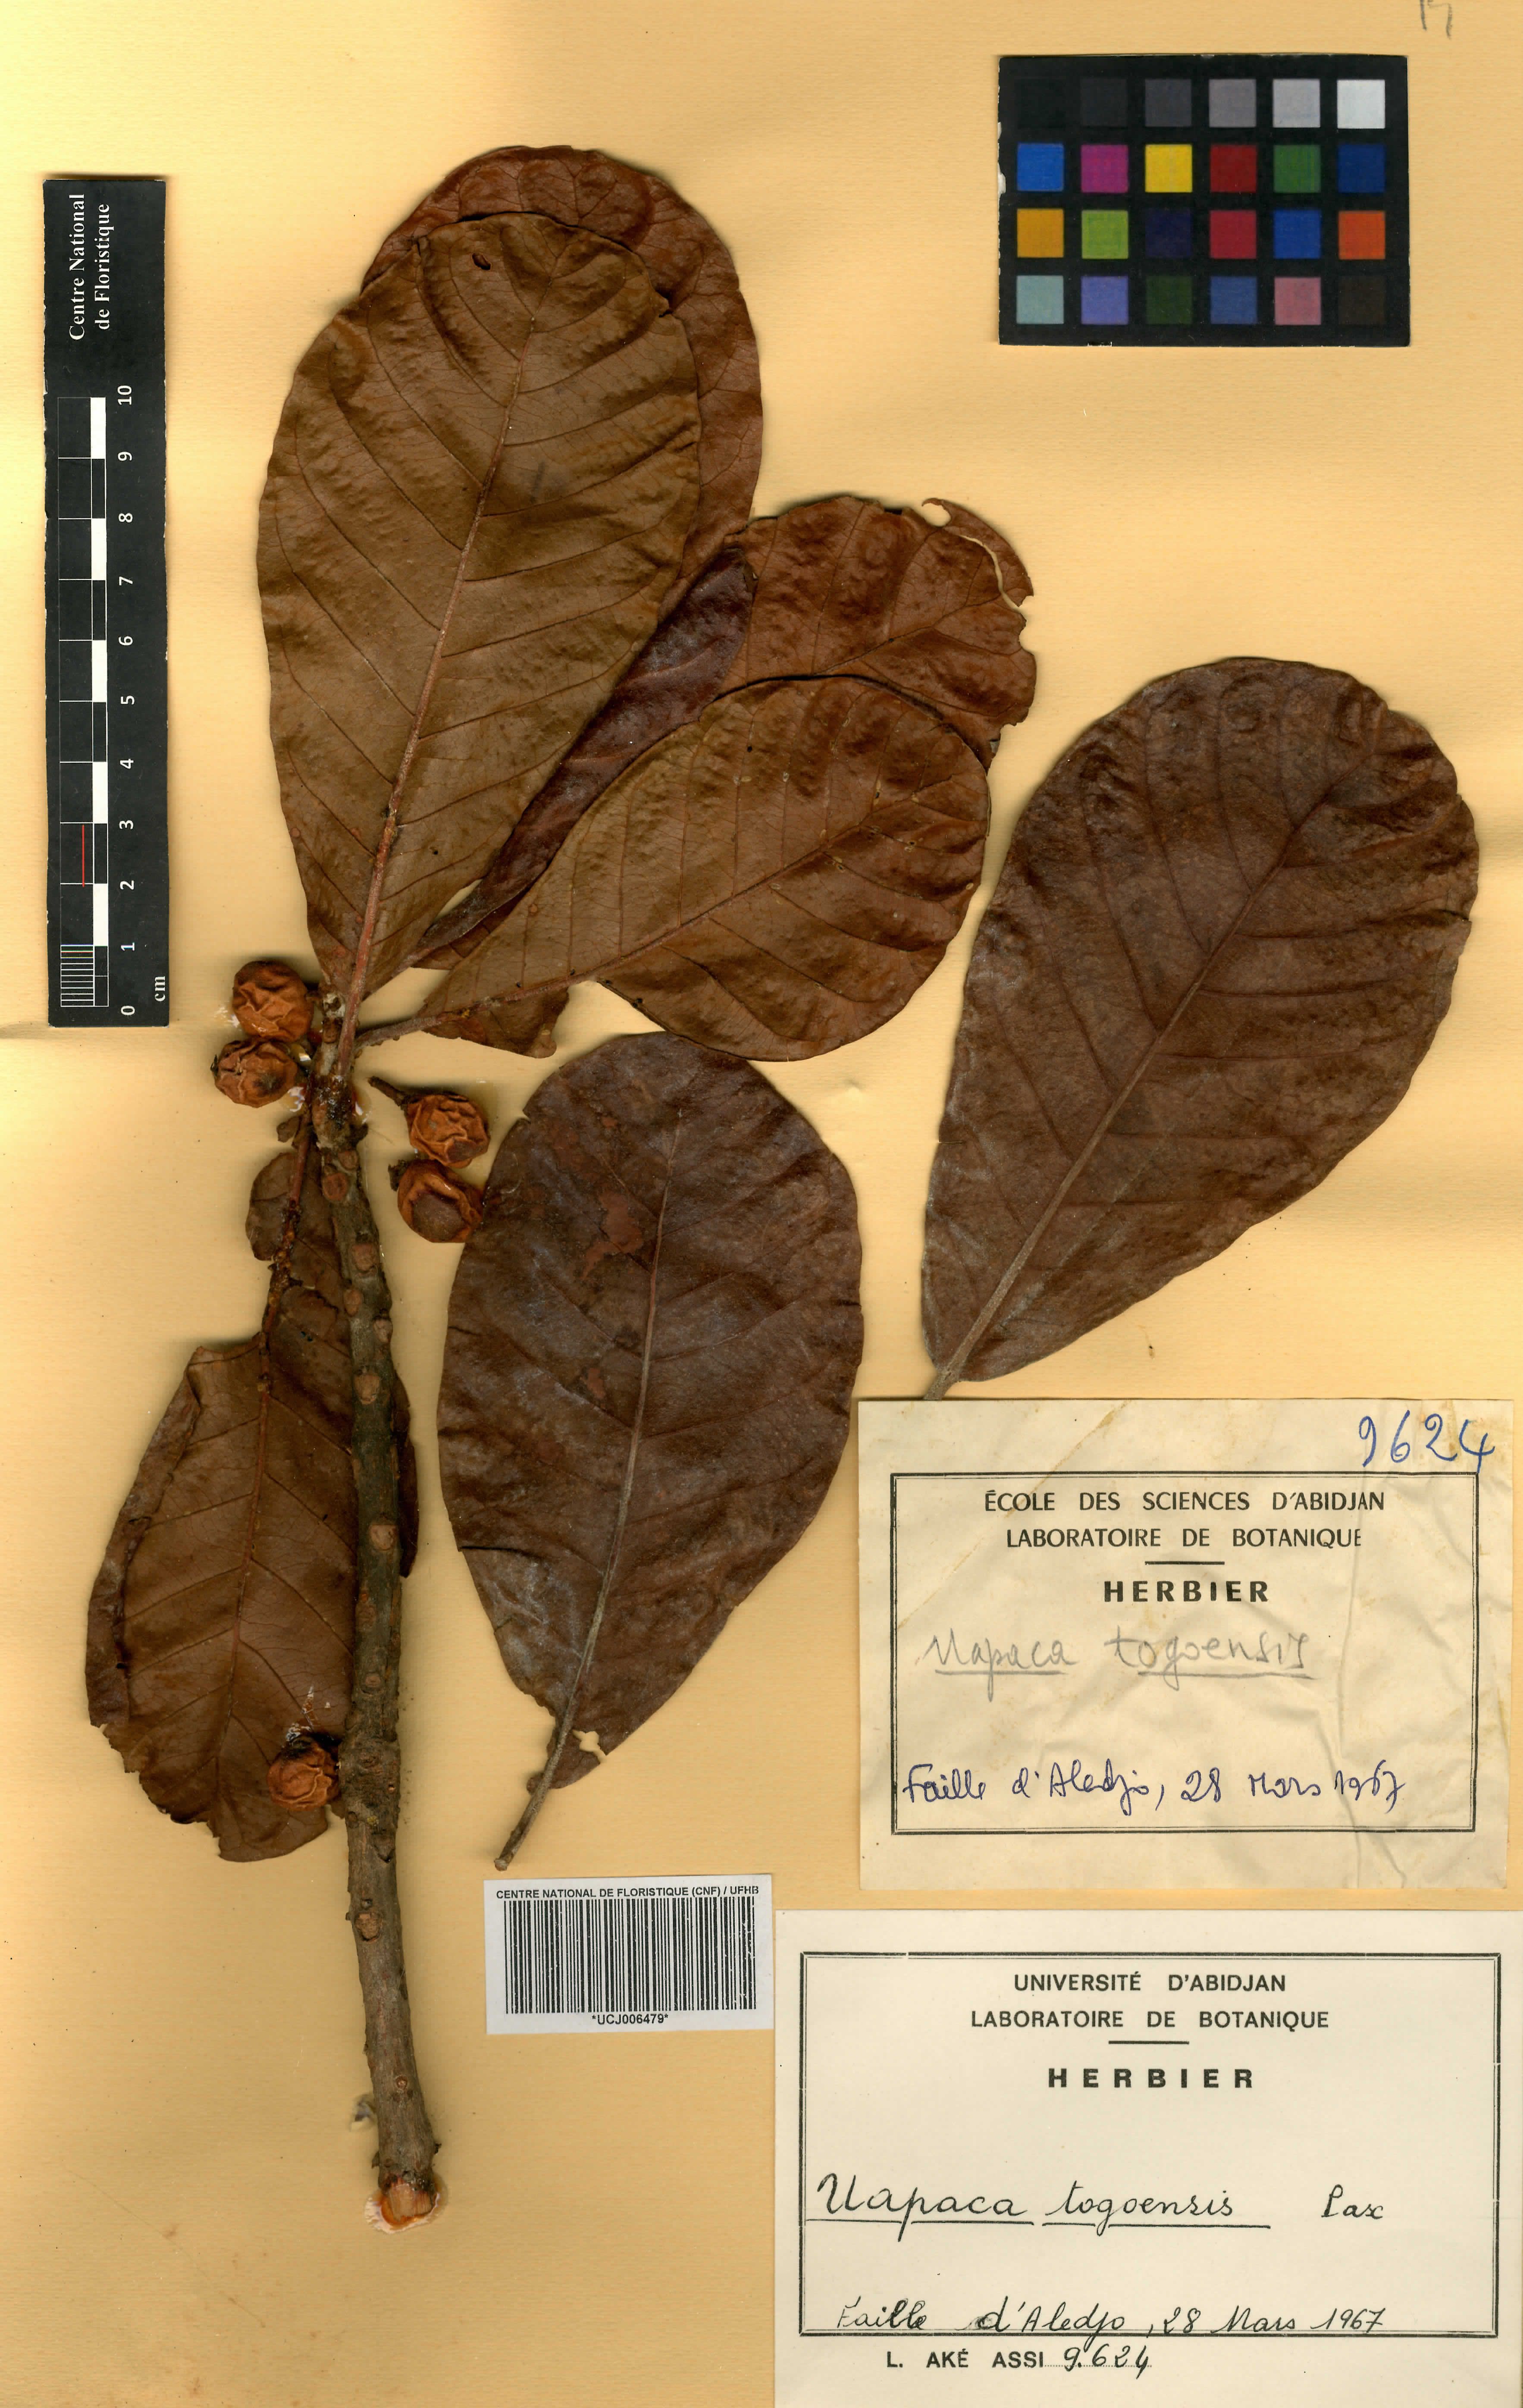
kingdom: Plantae
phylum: Tracheophyta
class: Magnoliopsida
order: Malpighiales
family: Phyllanthaceae
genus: Uapaca
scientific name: Uapaca togoensis
